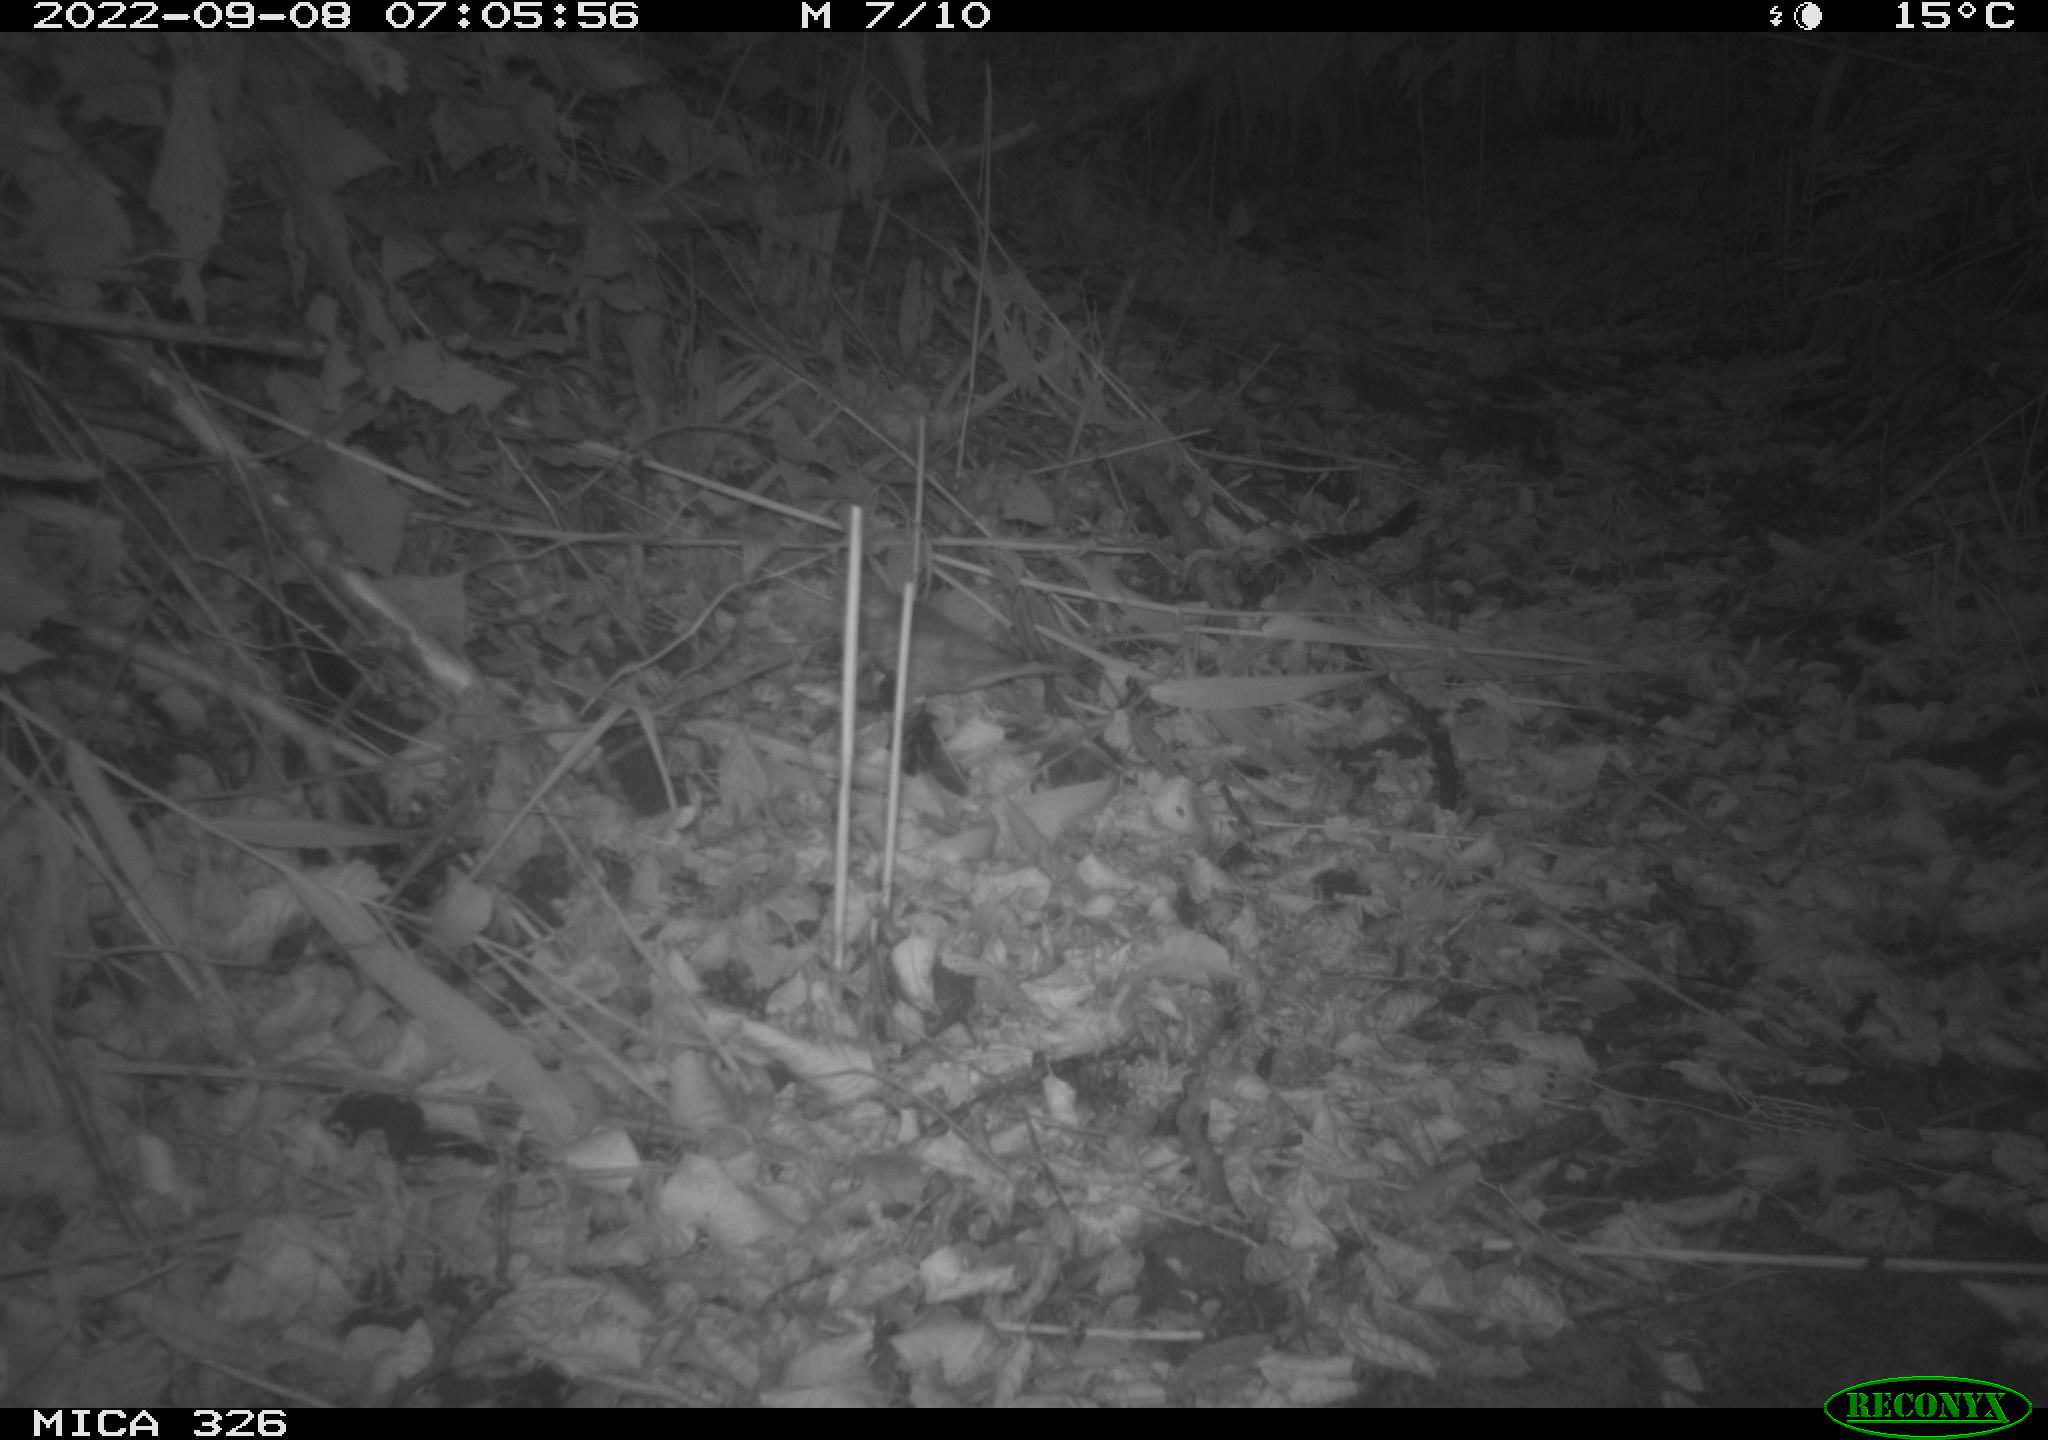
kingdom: Animalia
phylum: Chordata
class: Aves
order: Passeriformes
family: Turdidae
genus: Turdus
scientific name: Turdus
